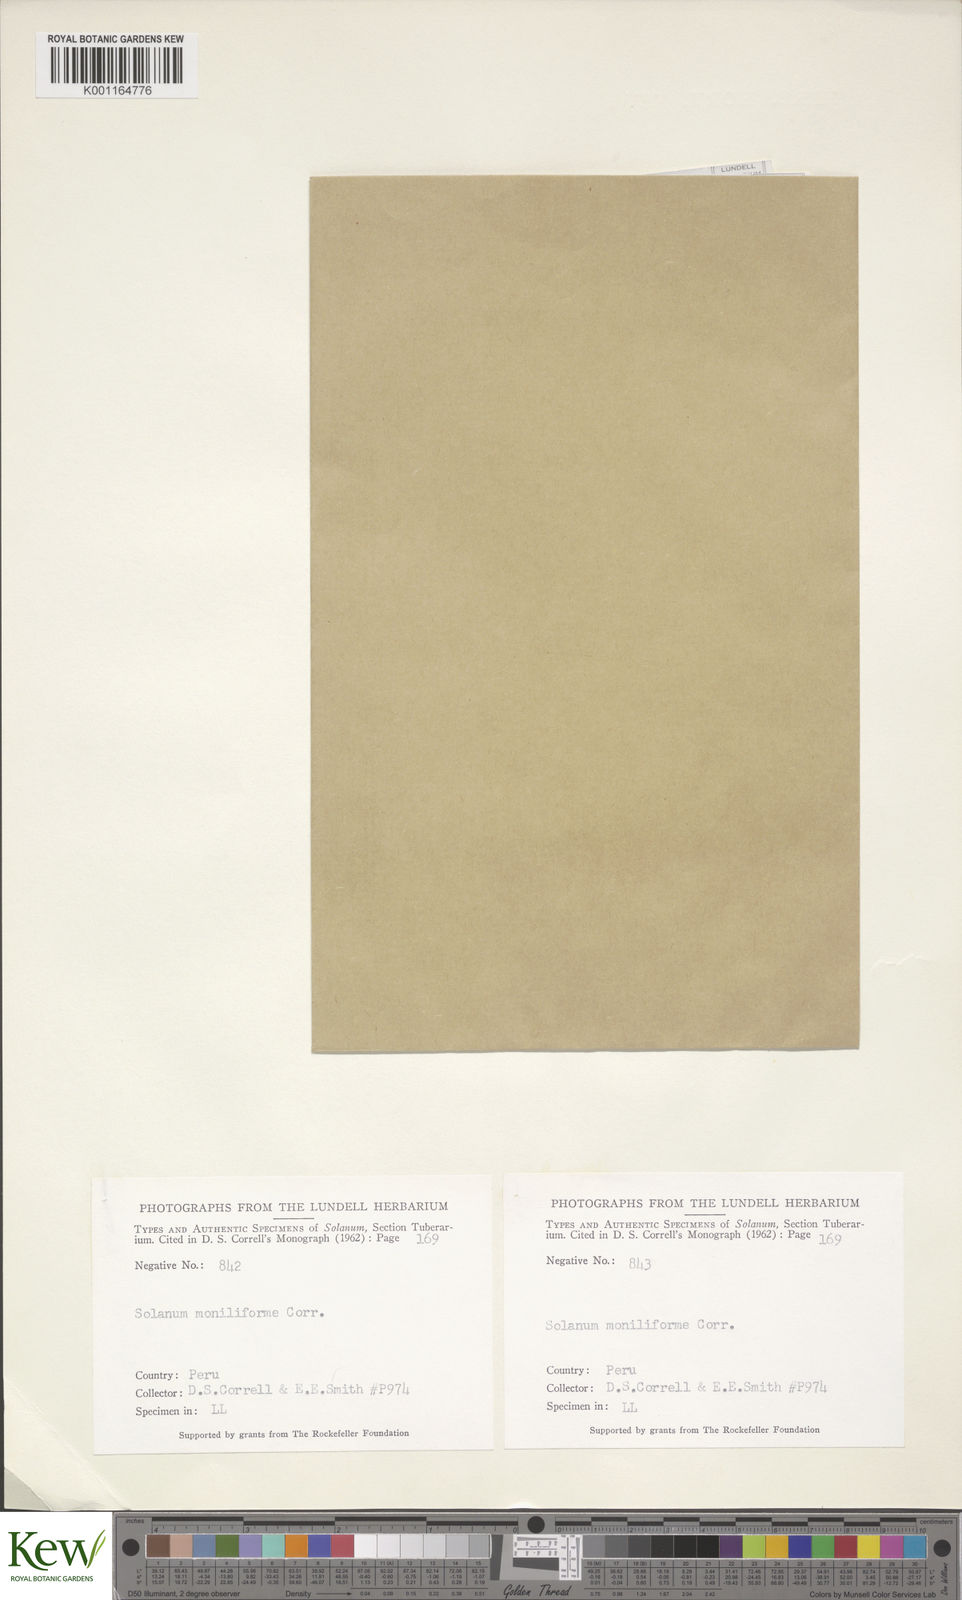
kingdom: Plantae
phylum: Tracheophyta
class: Magnoliopsida
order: Solanales
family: Solanaceae
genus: Solanum
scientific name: Solanum multiinterruptum
